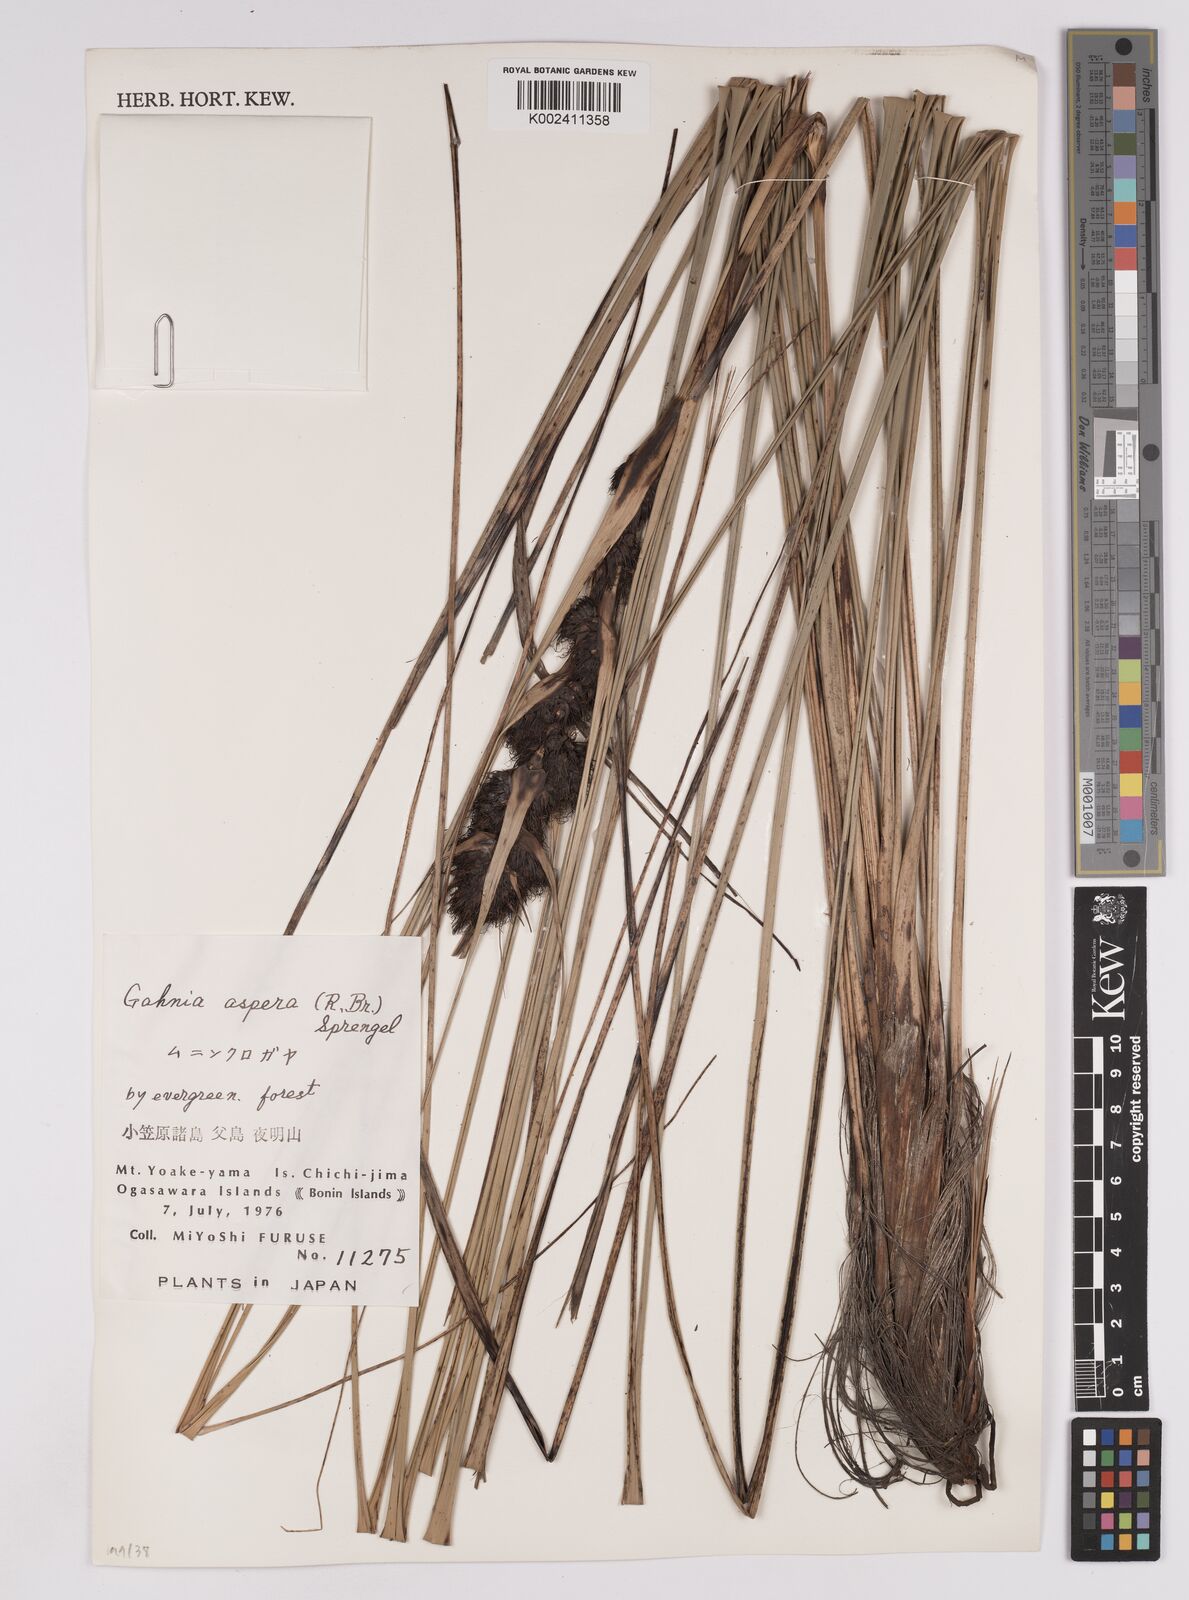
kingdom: Plantae
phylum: Tracheophyta
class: Liliopsida
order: Poales
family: Cyperaceae
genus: Gahnia
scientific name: Gahnia aspera
